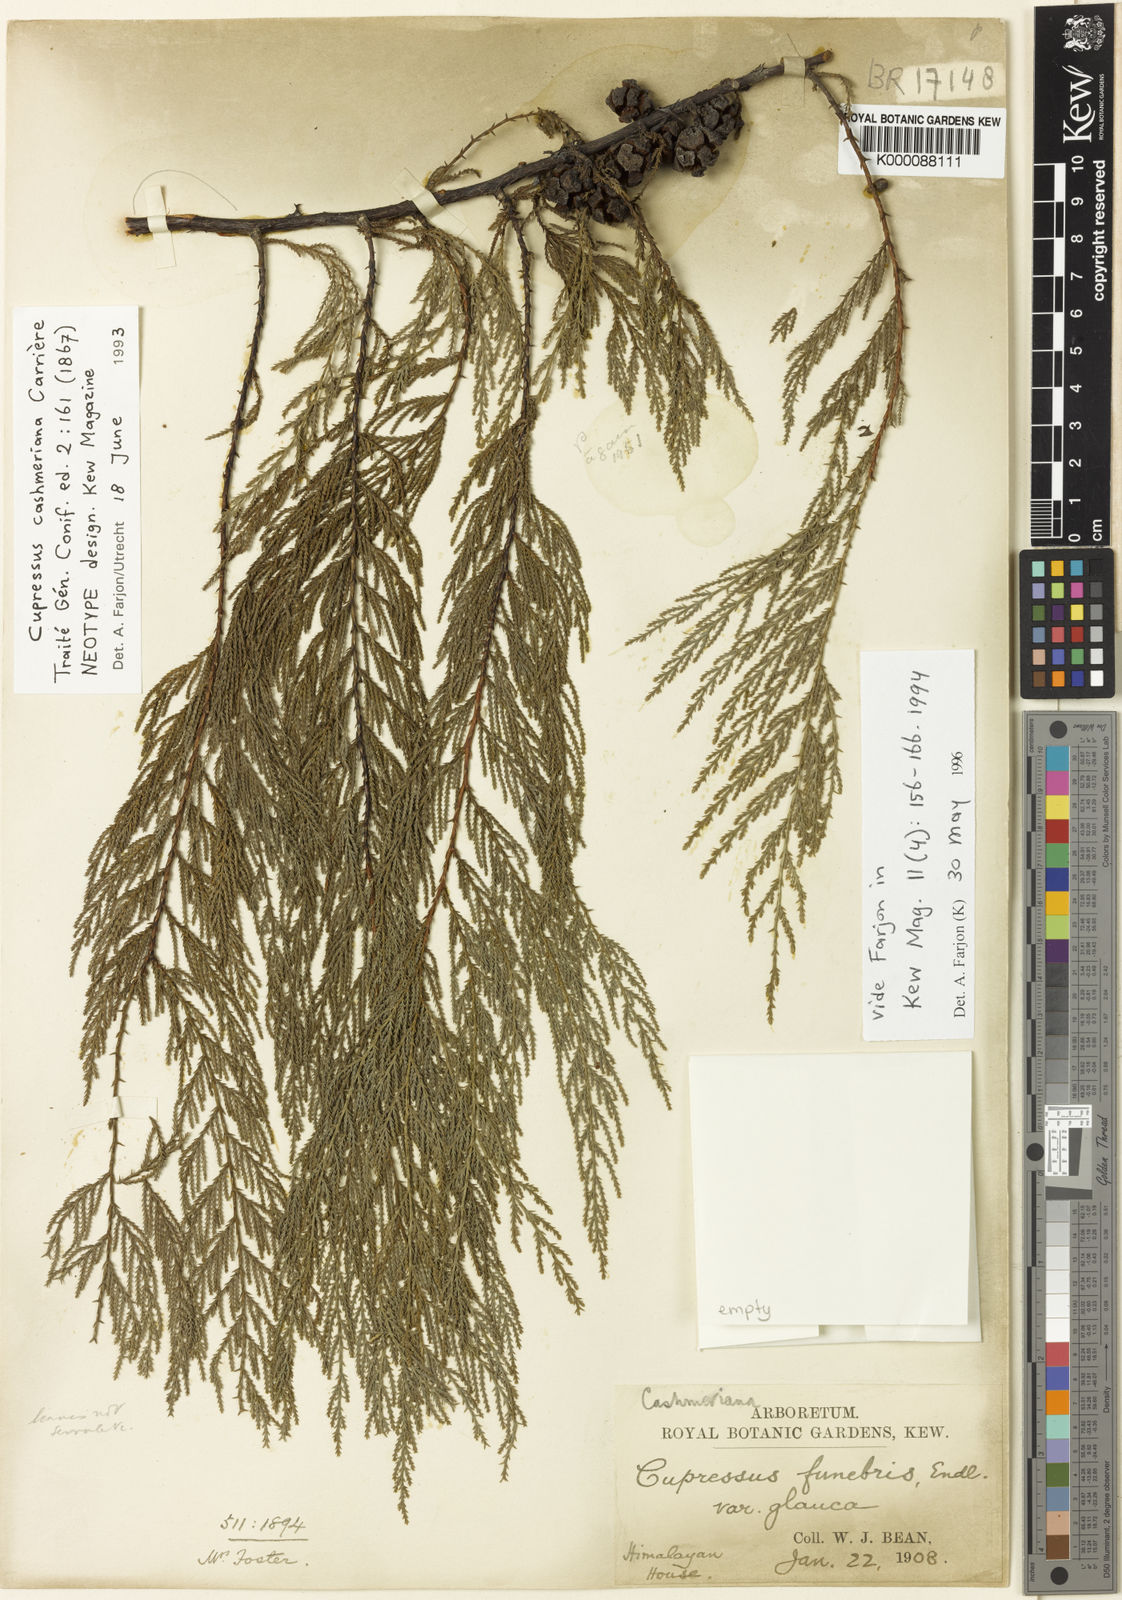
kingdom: Plantae
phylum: Tracheophyta
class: Pinopsida
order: Pinales
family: Cupressaceae
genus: Cupressus
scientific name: Cupressus
